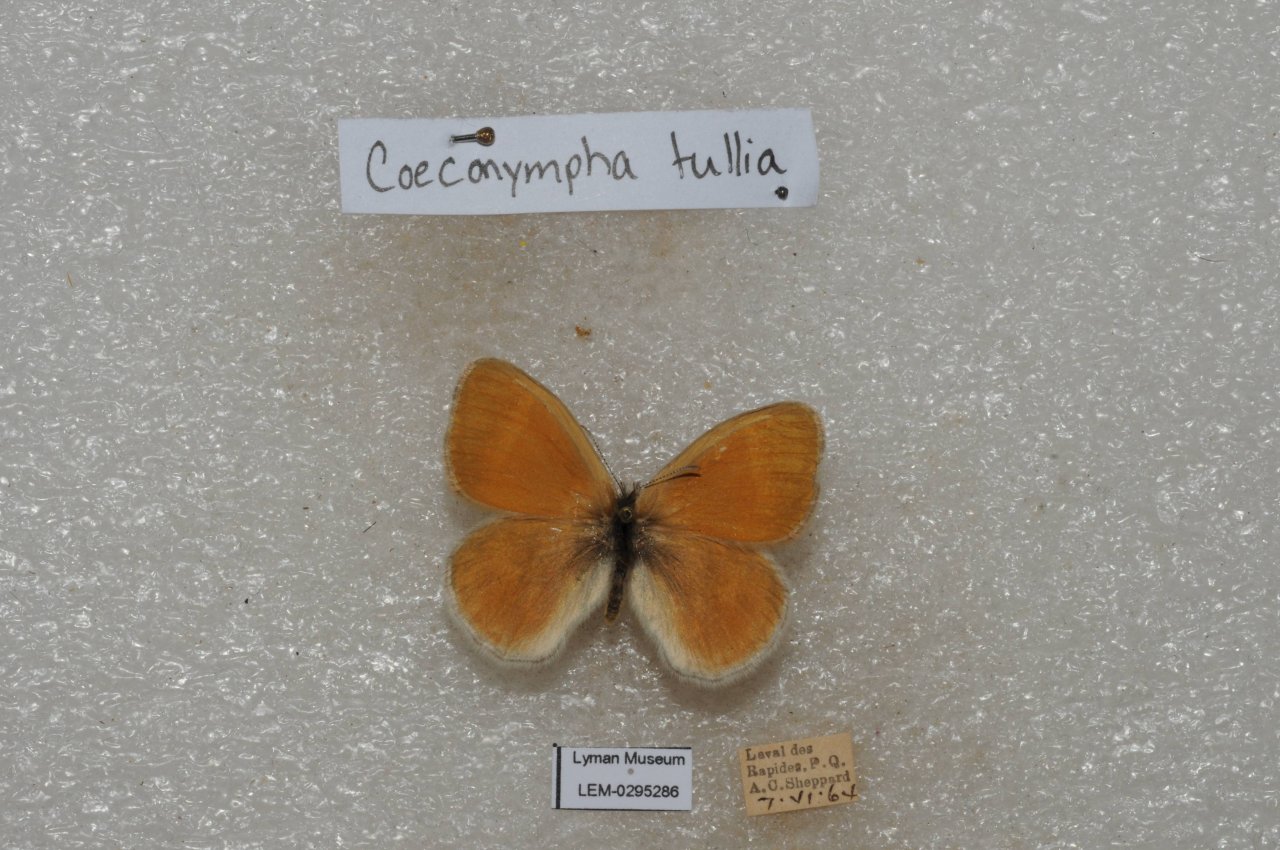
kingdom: Animalia
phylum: Arthropoda
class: Insecta
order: Lepidoptera
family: Nymphalidae
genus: Coenonympha
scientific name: Coenonympha tullia
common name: Large Heath
